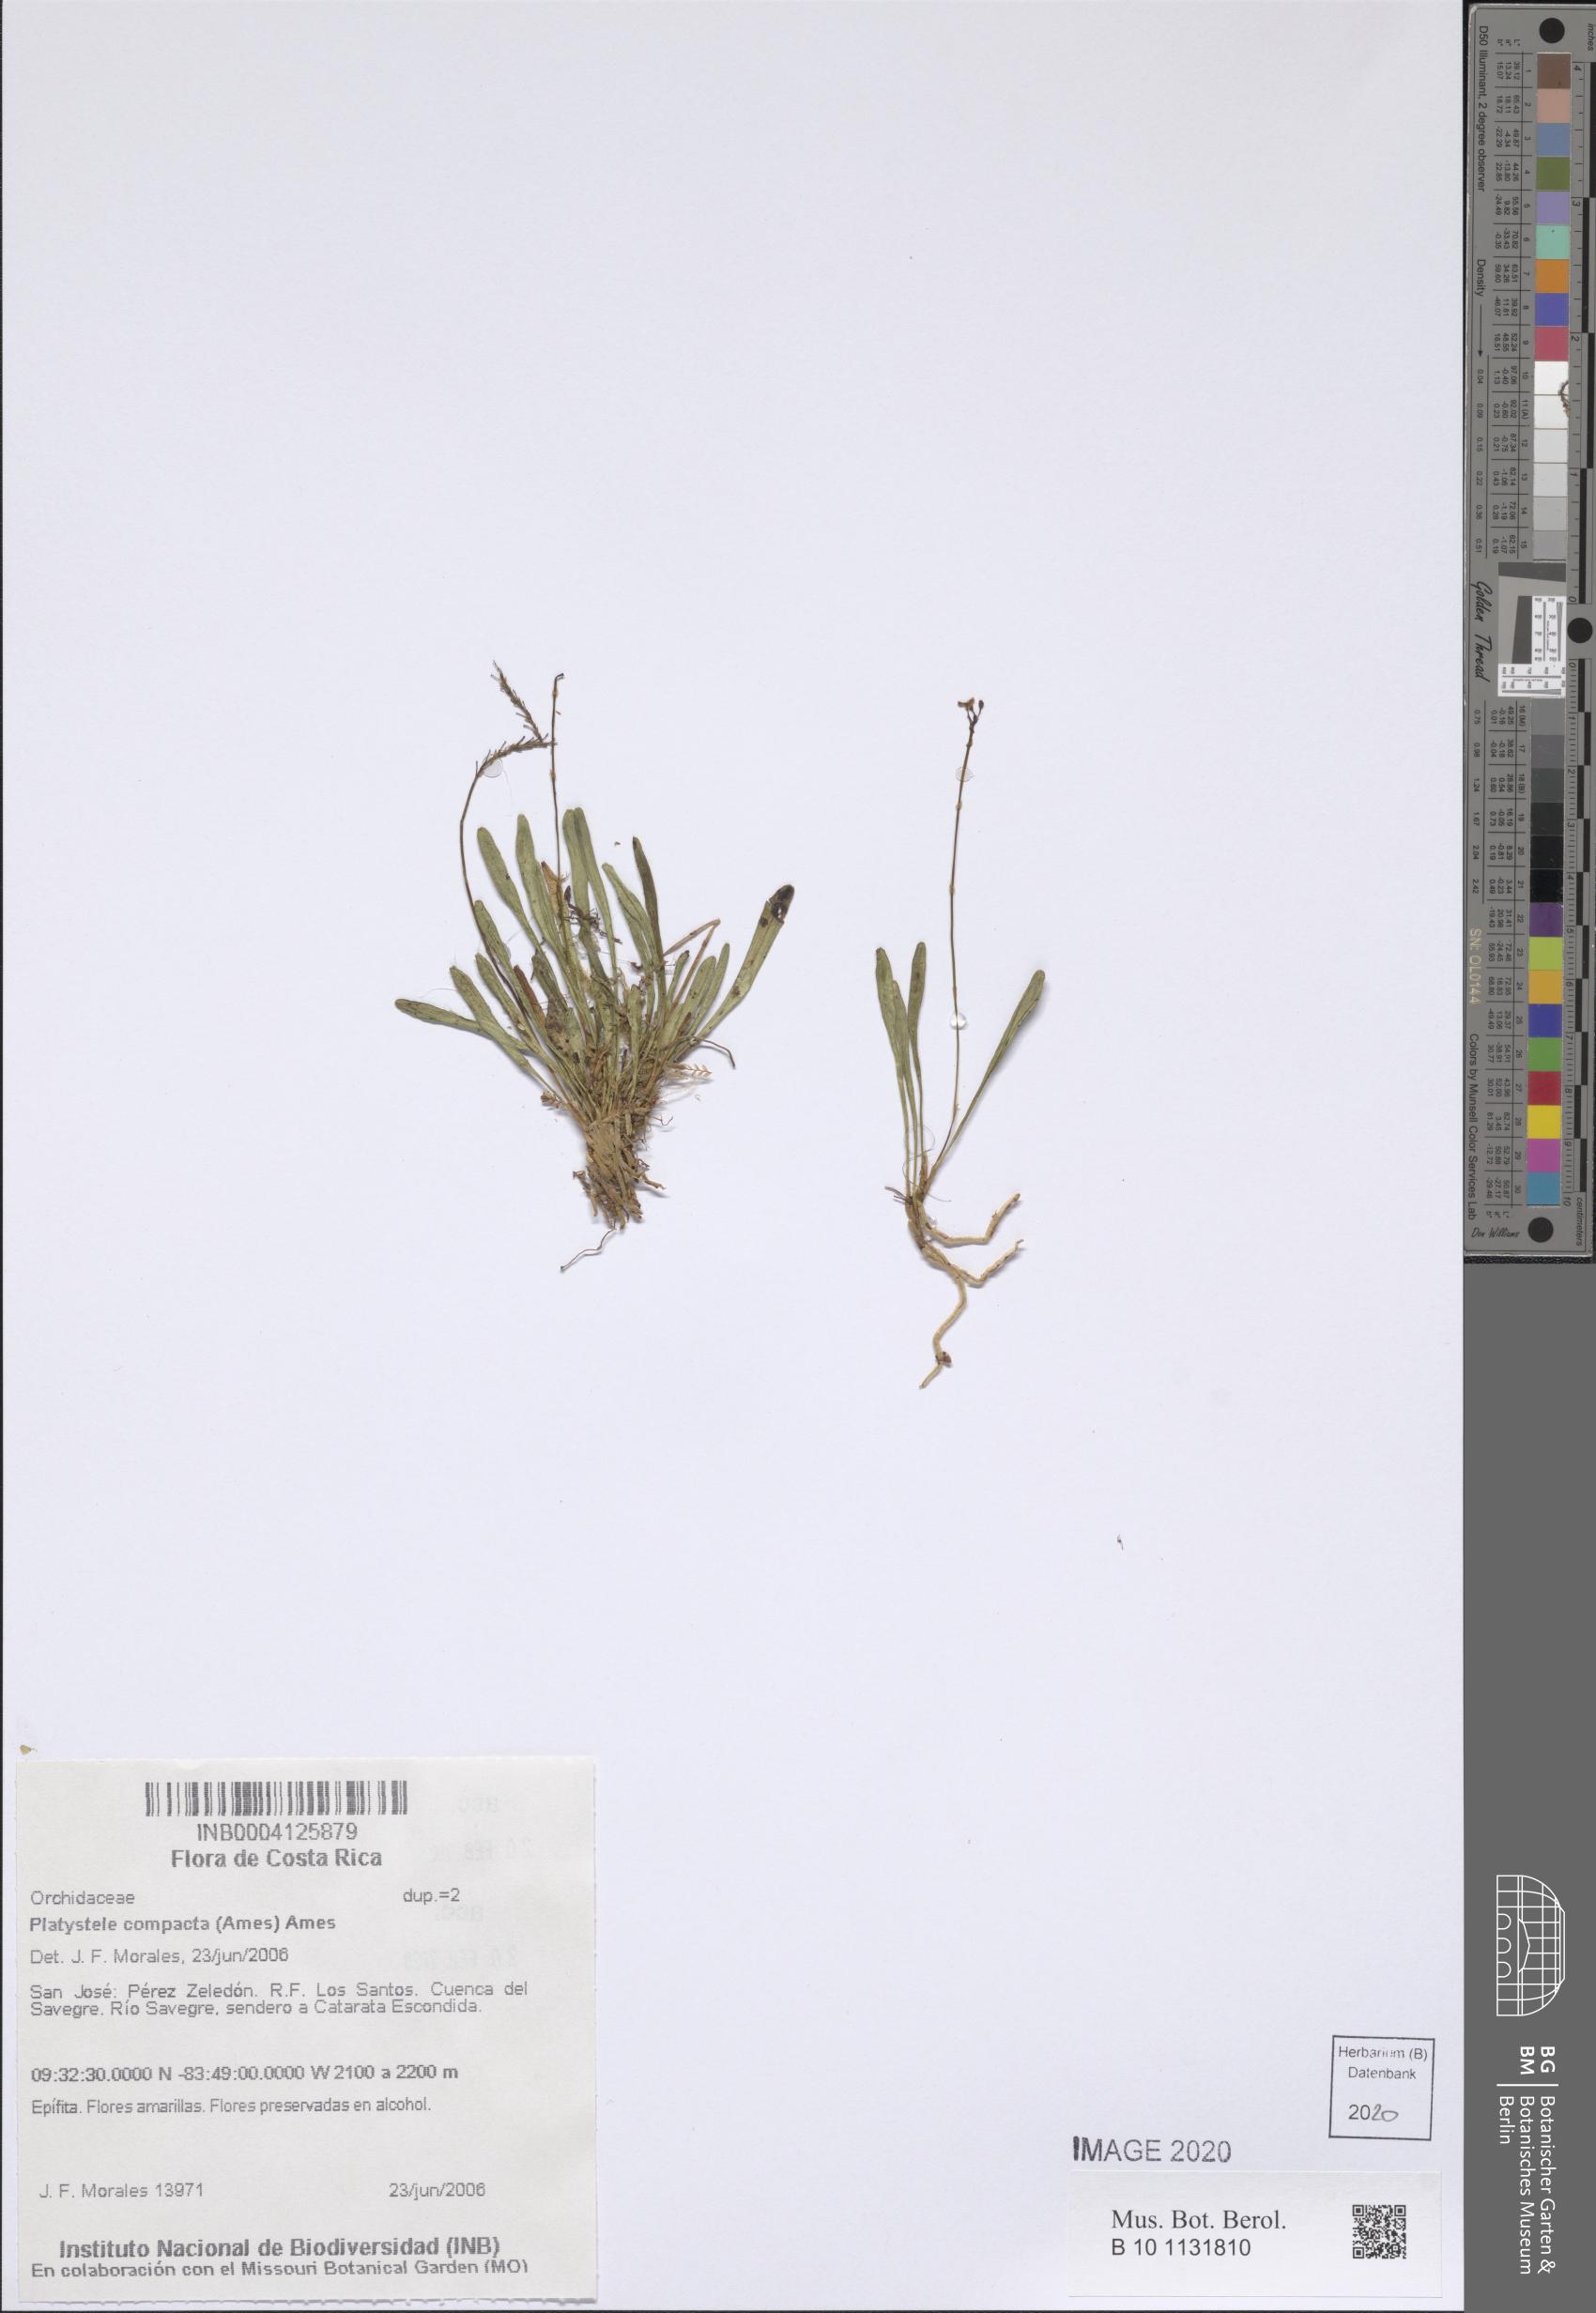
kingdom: Plantae
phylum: Tracheophyta
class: Liliopsida
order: Asparagales
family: Orchidaceae
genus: Platystele
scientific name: Platystele compacta
